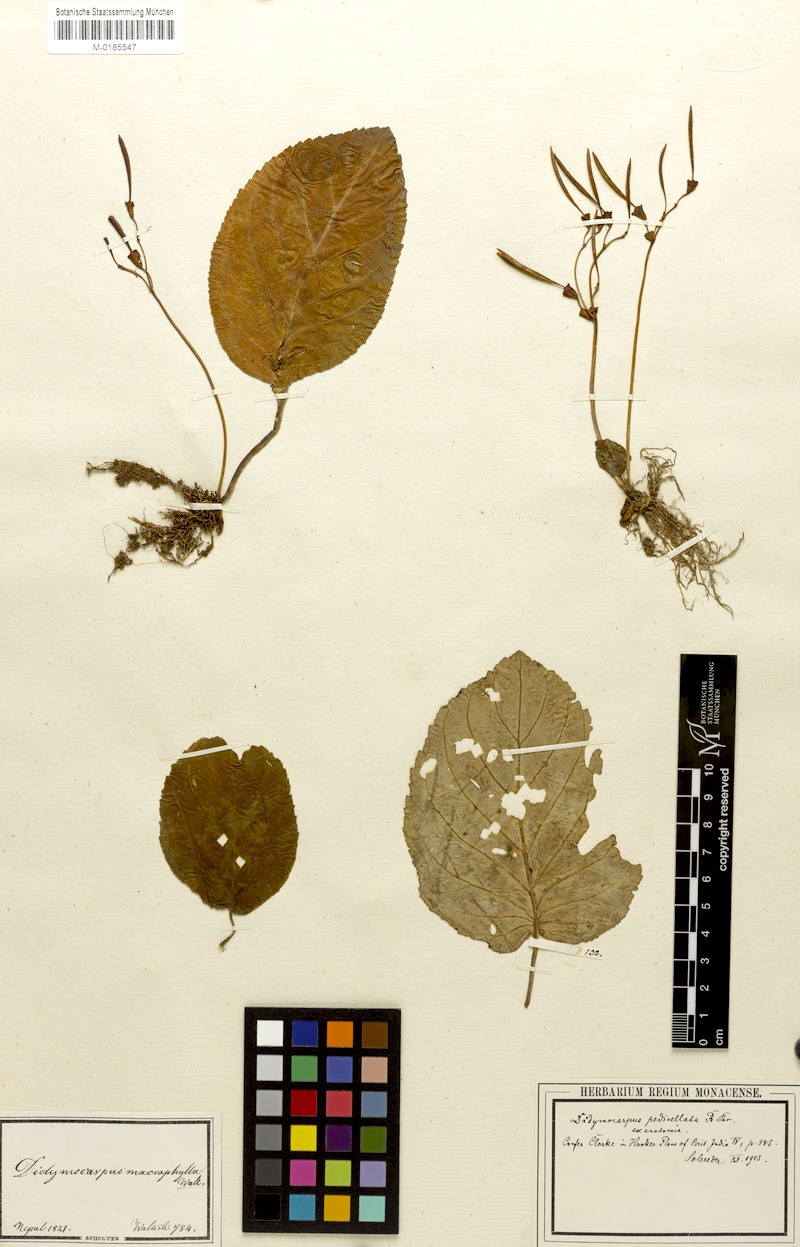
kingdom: Plantae
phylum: Tracheophyta
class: Magnoliopsida
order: Lamiales
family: Gesneriaceae
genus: Didymocarpus
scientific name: Didymocarpus macrophyllus
